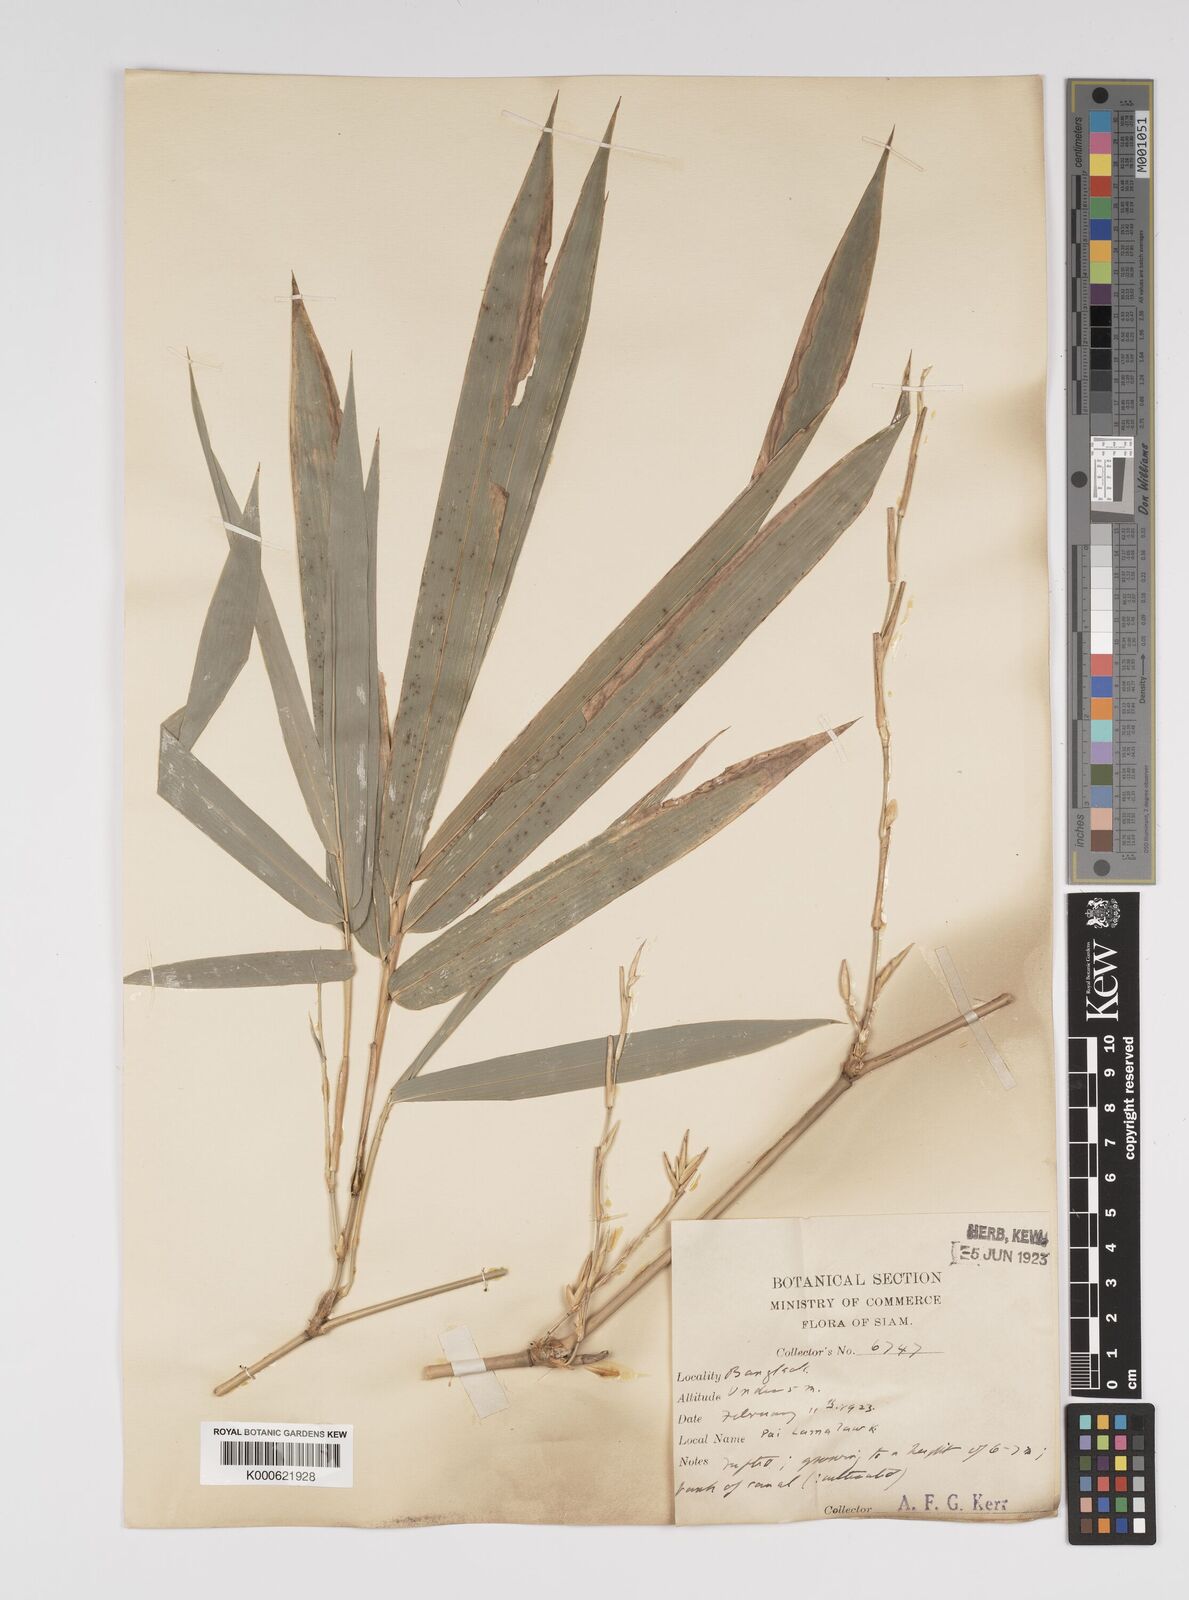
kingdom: Plantae
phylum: Tracheophyta
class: Liliopsida
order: Poales
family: Poaceae
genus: Bambusa
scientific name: Bambusa
